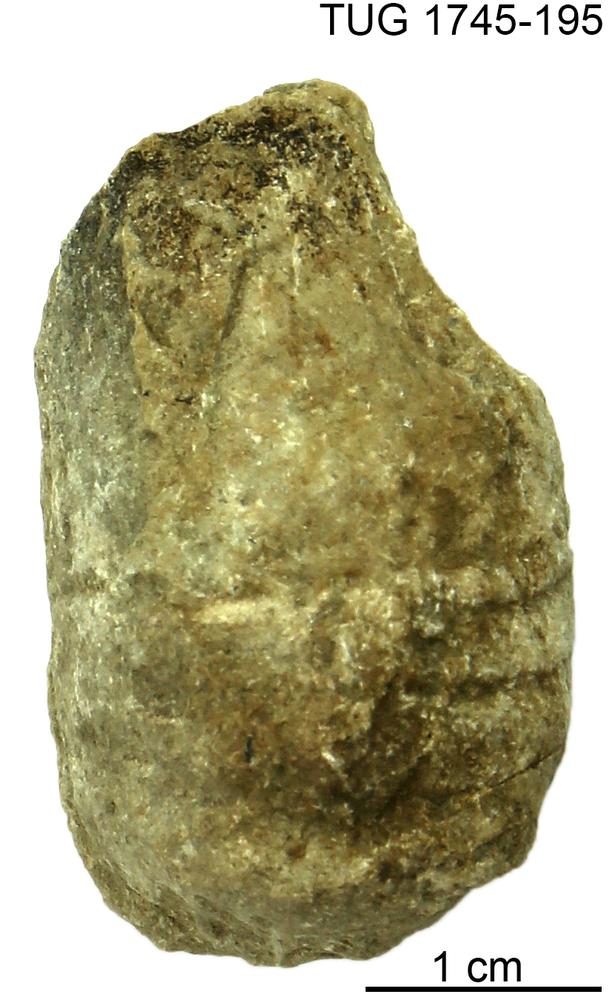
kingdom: Animalia
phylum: Mollusca
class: Cephalopoda
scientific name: Cephalopoda
